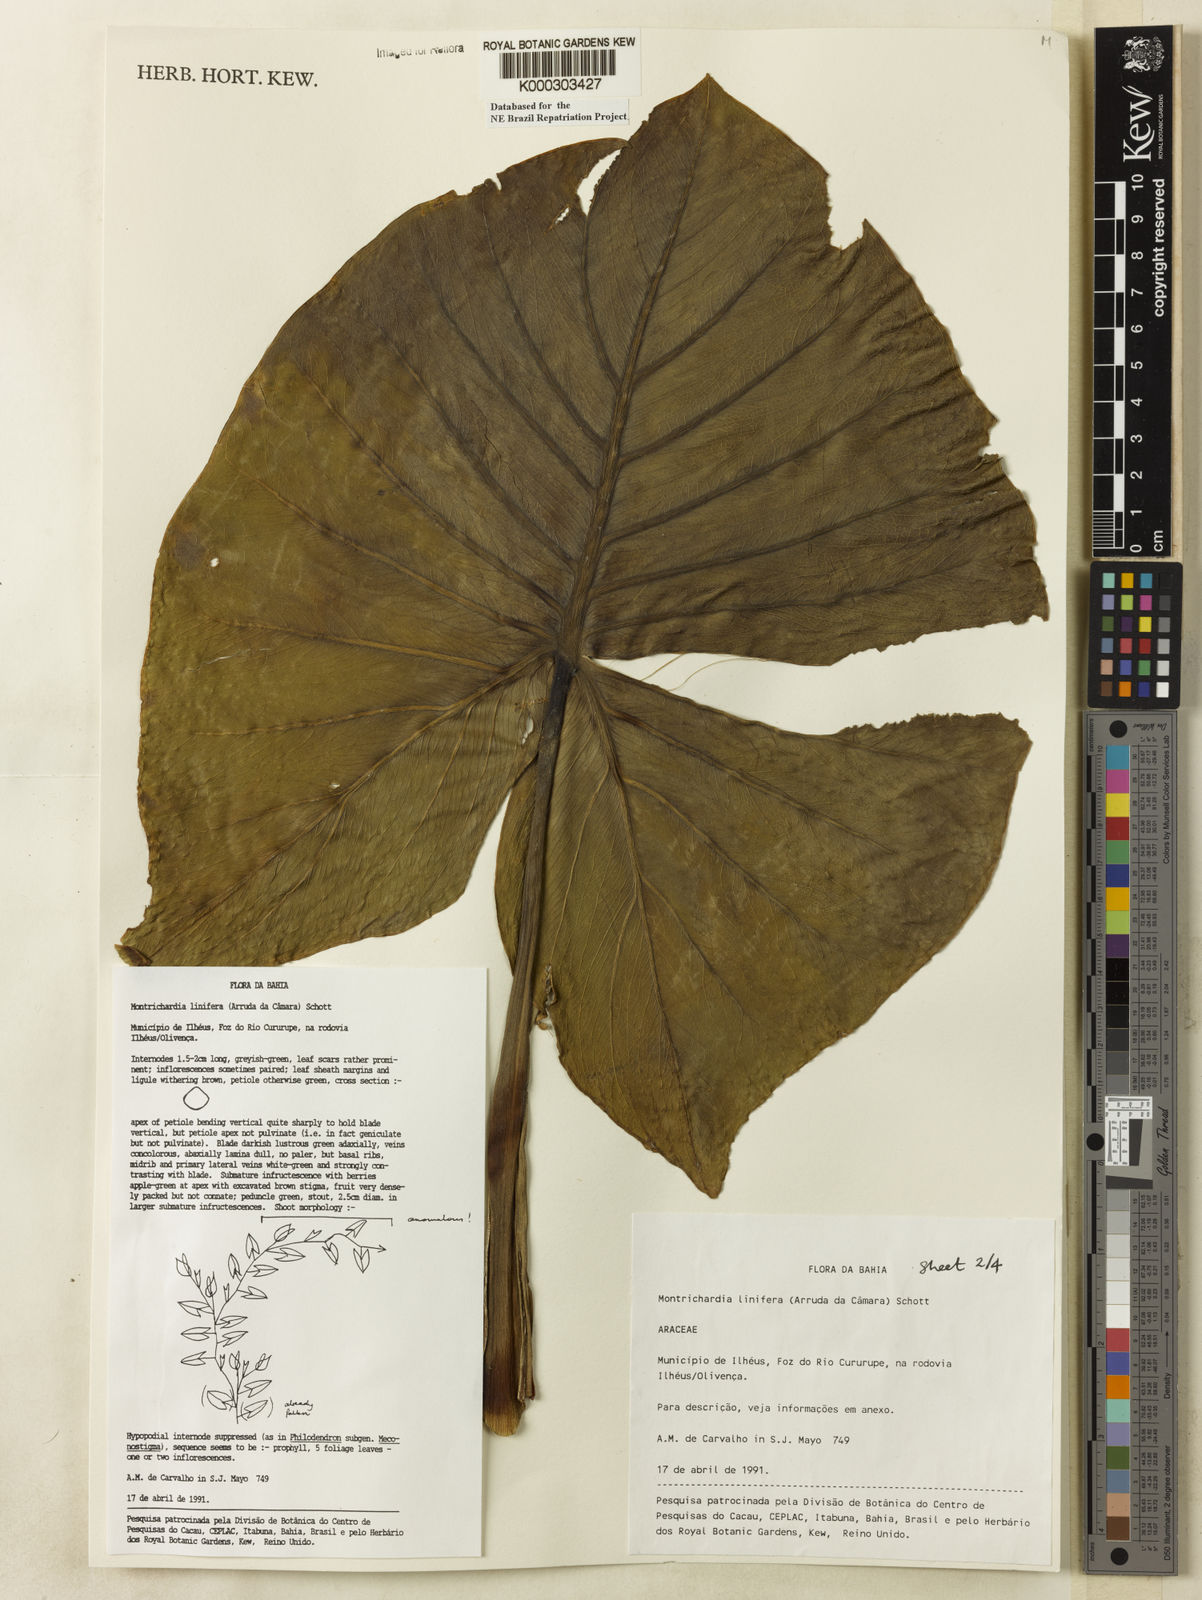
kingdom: Plantae
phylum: Tracheophyta
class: Liliopsida
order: Alismatales
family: Araceae
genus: Montrichardia
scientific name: Montrichardia linifera
